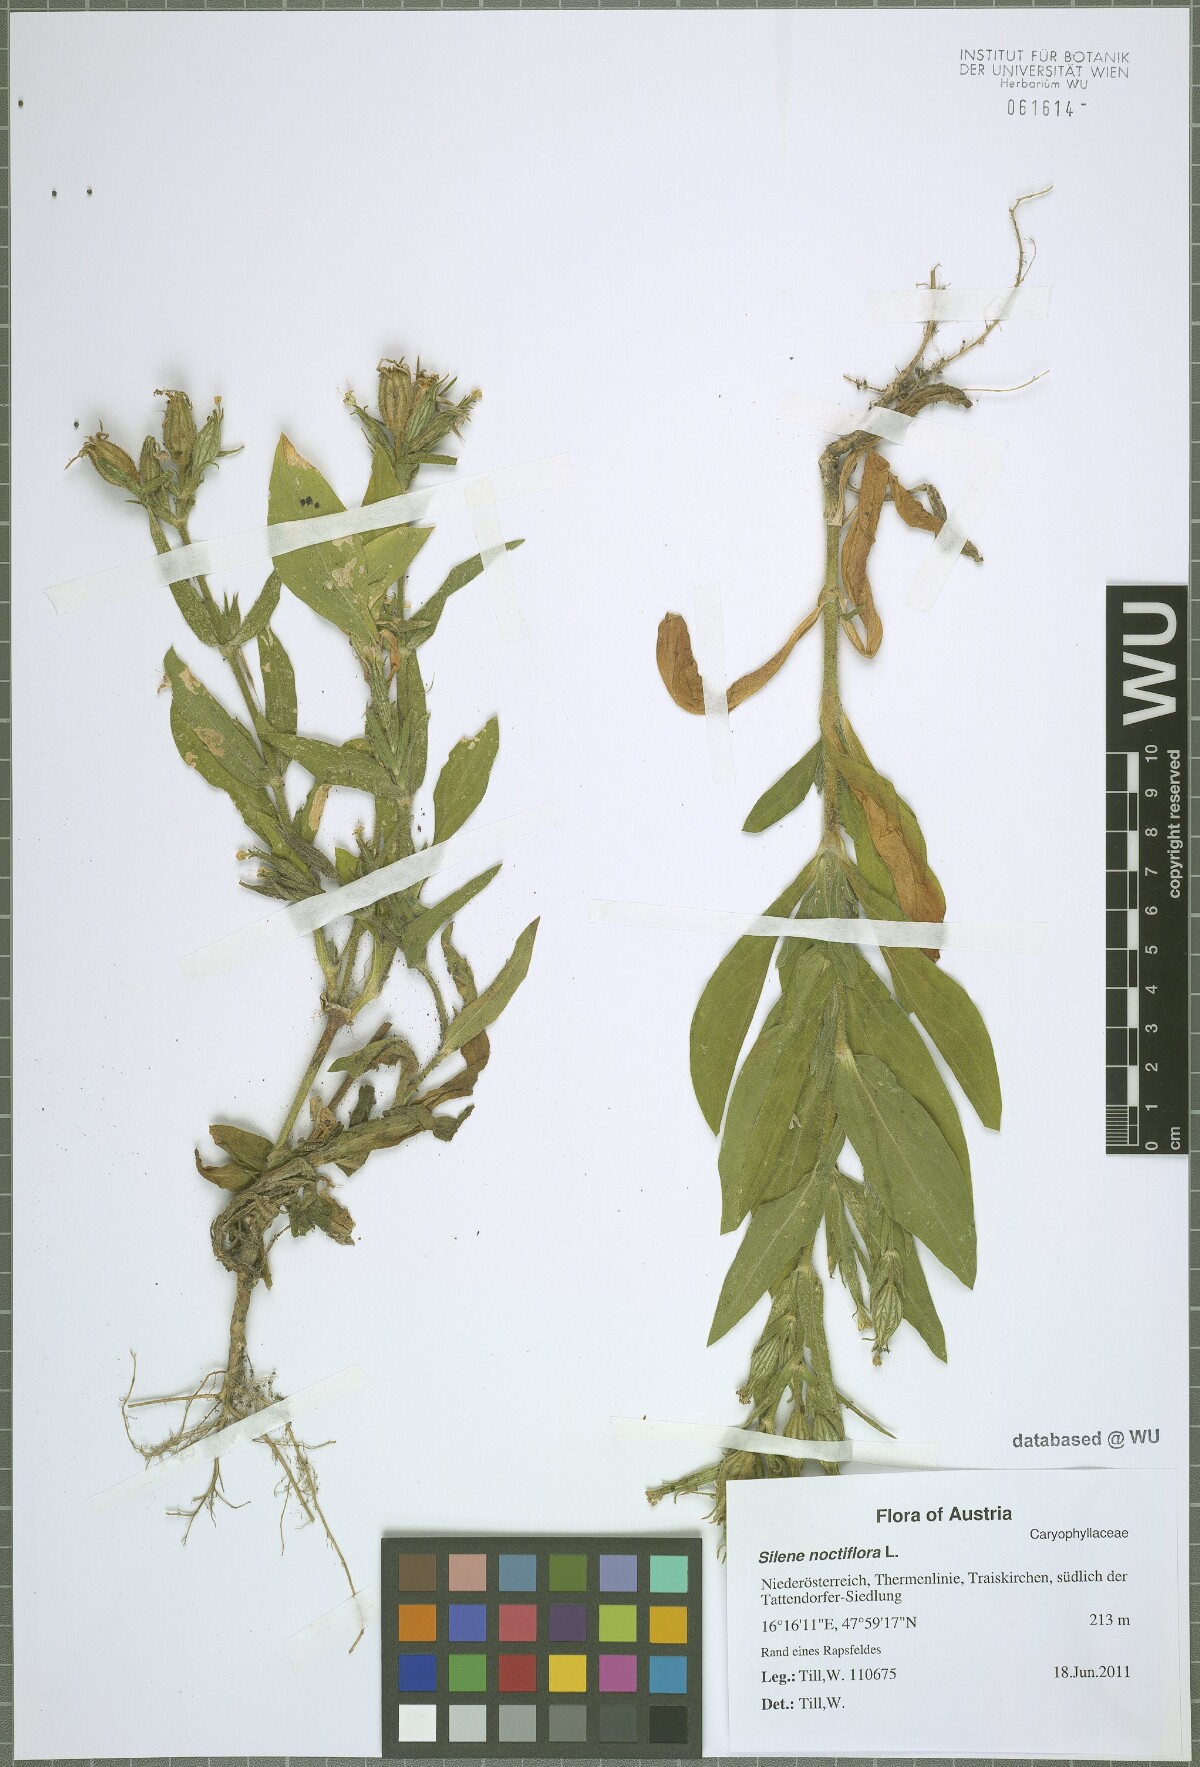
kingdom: Plantae
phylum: Tracheophyta
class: Magnoliopsida
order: Caryophyllales
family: Caryophyllaceae
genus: Silene
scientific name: Silene noctiflora
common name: Night-flowering catchfly
